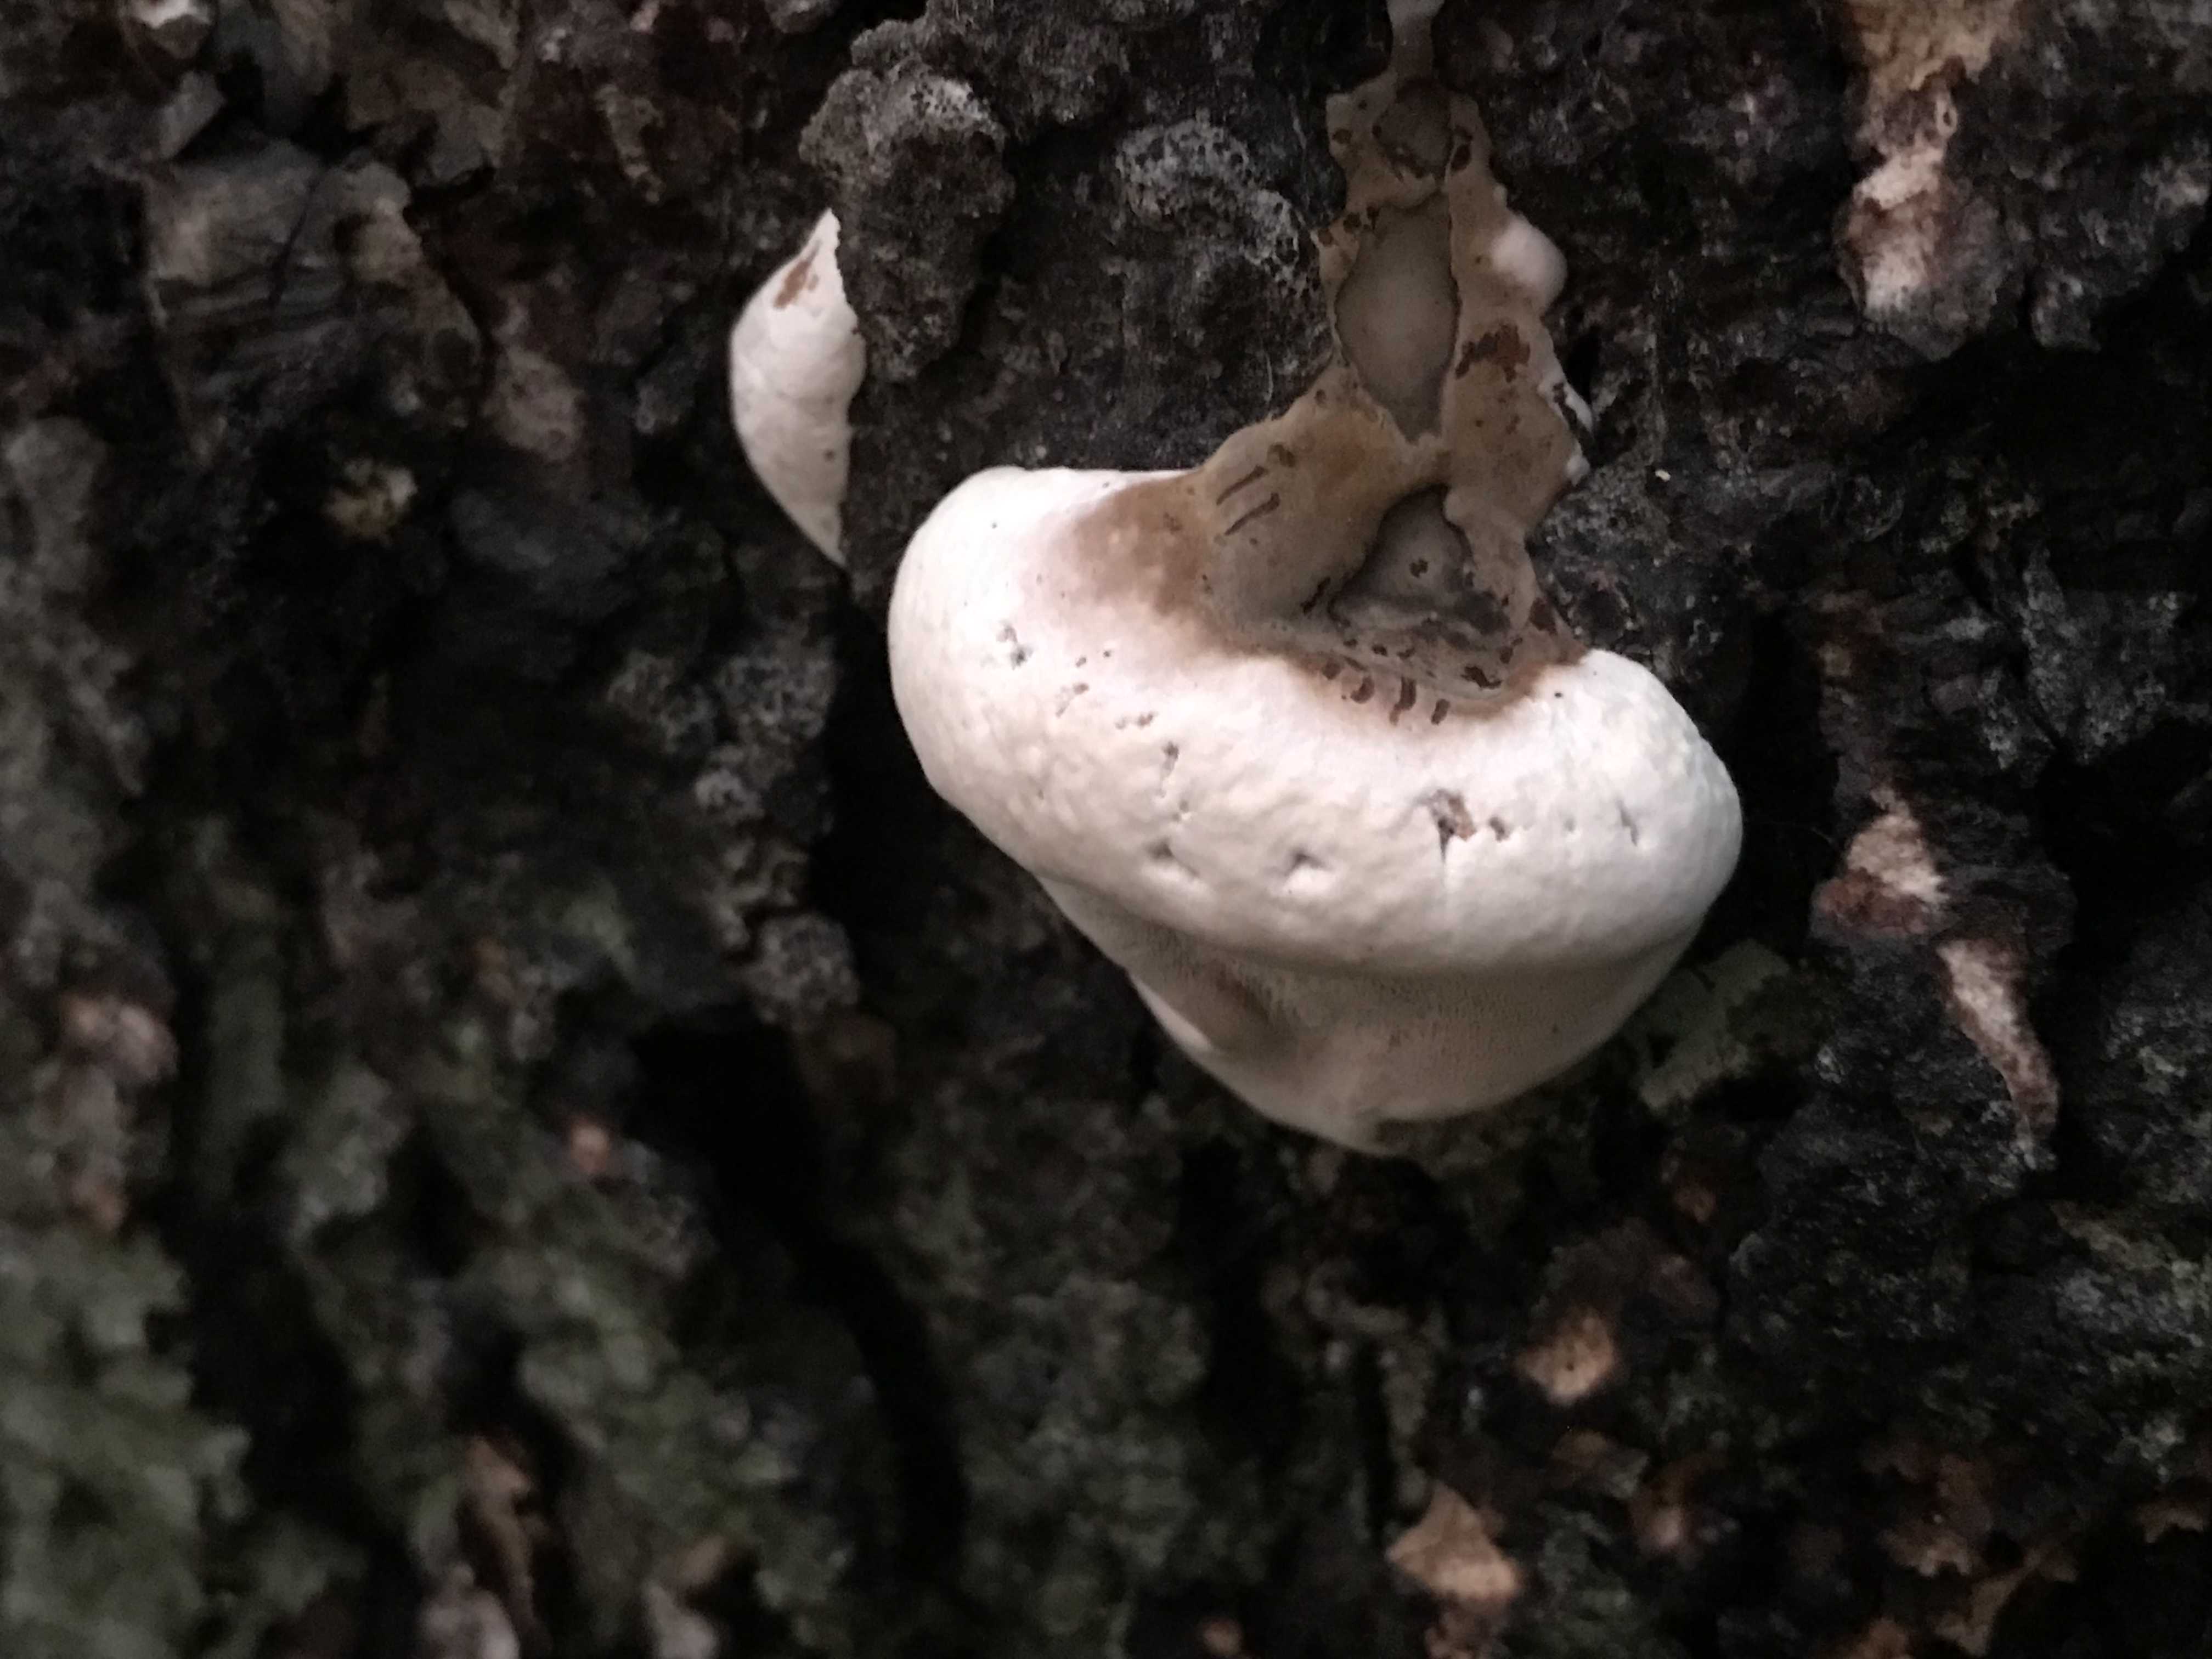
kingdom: Fungi
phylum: Basidiomycota
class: Agaricomycetes
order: Polyporales
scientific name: Polyporales
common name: poresvampordenen
